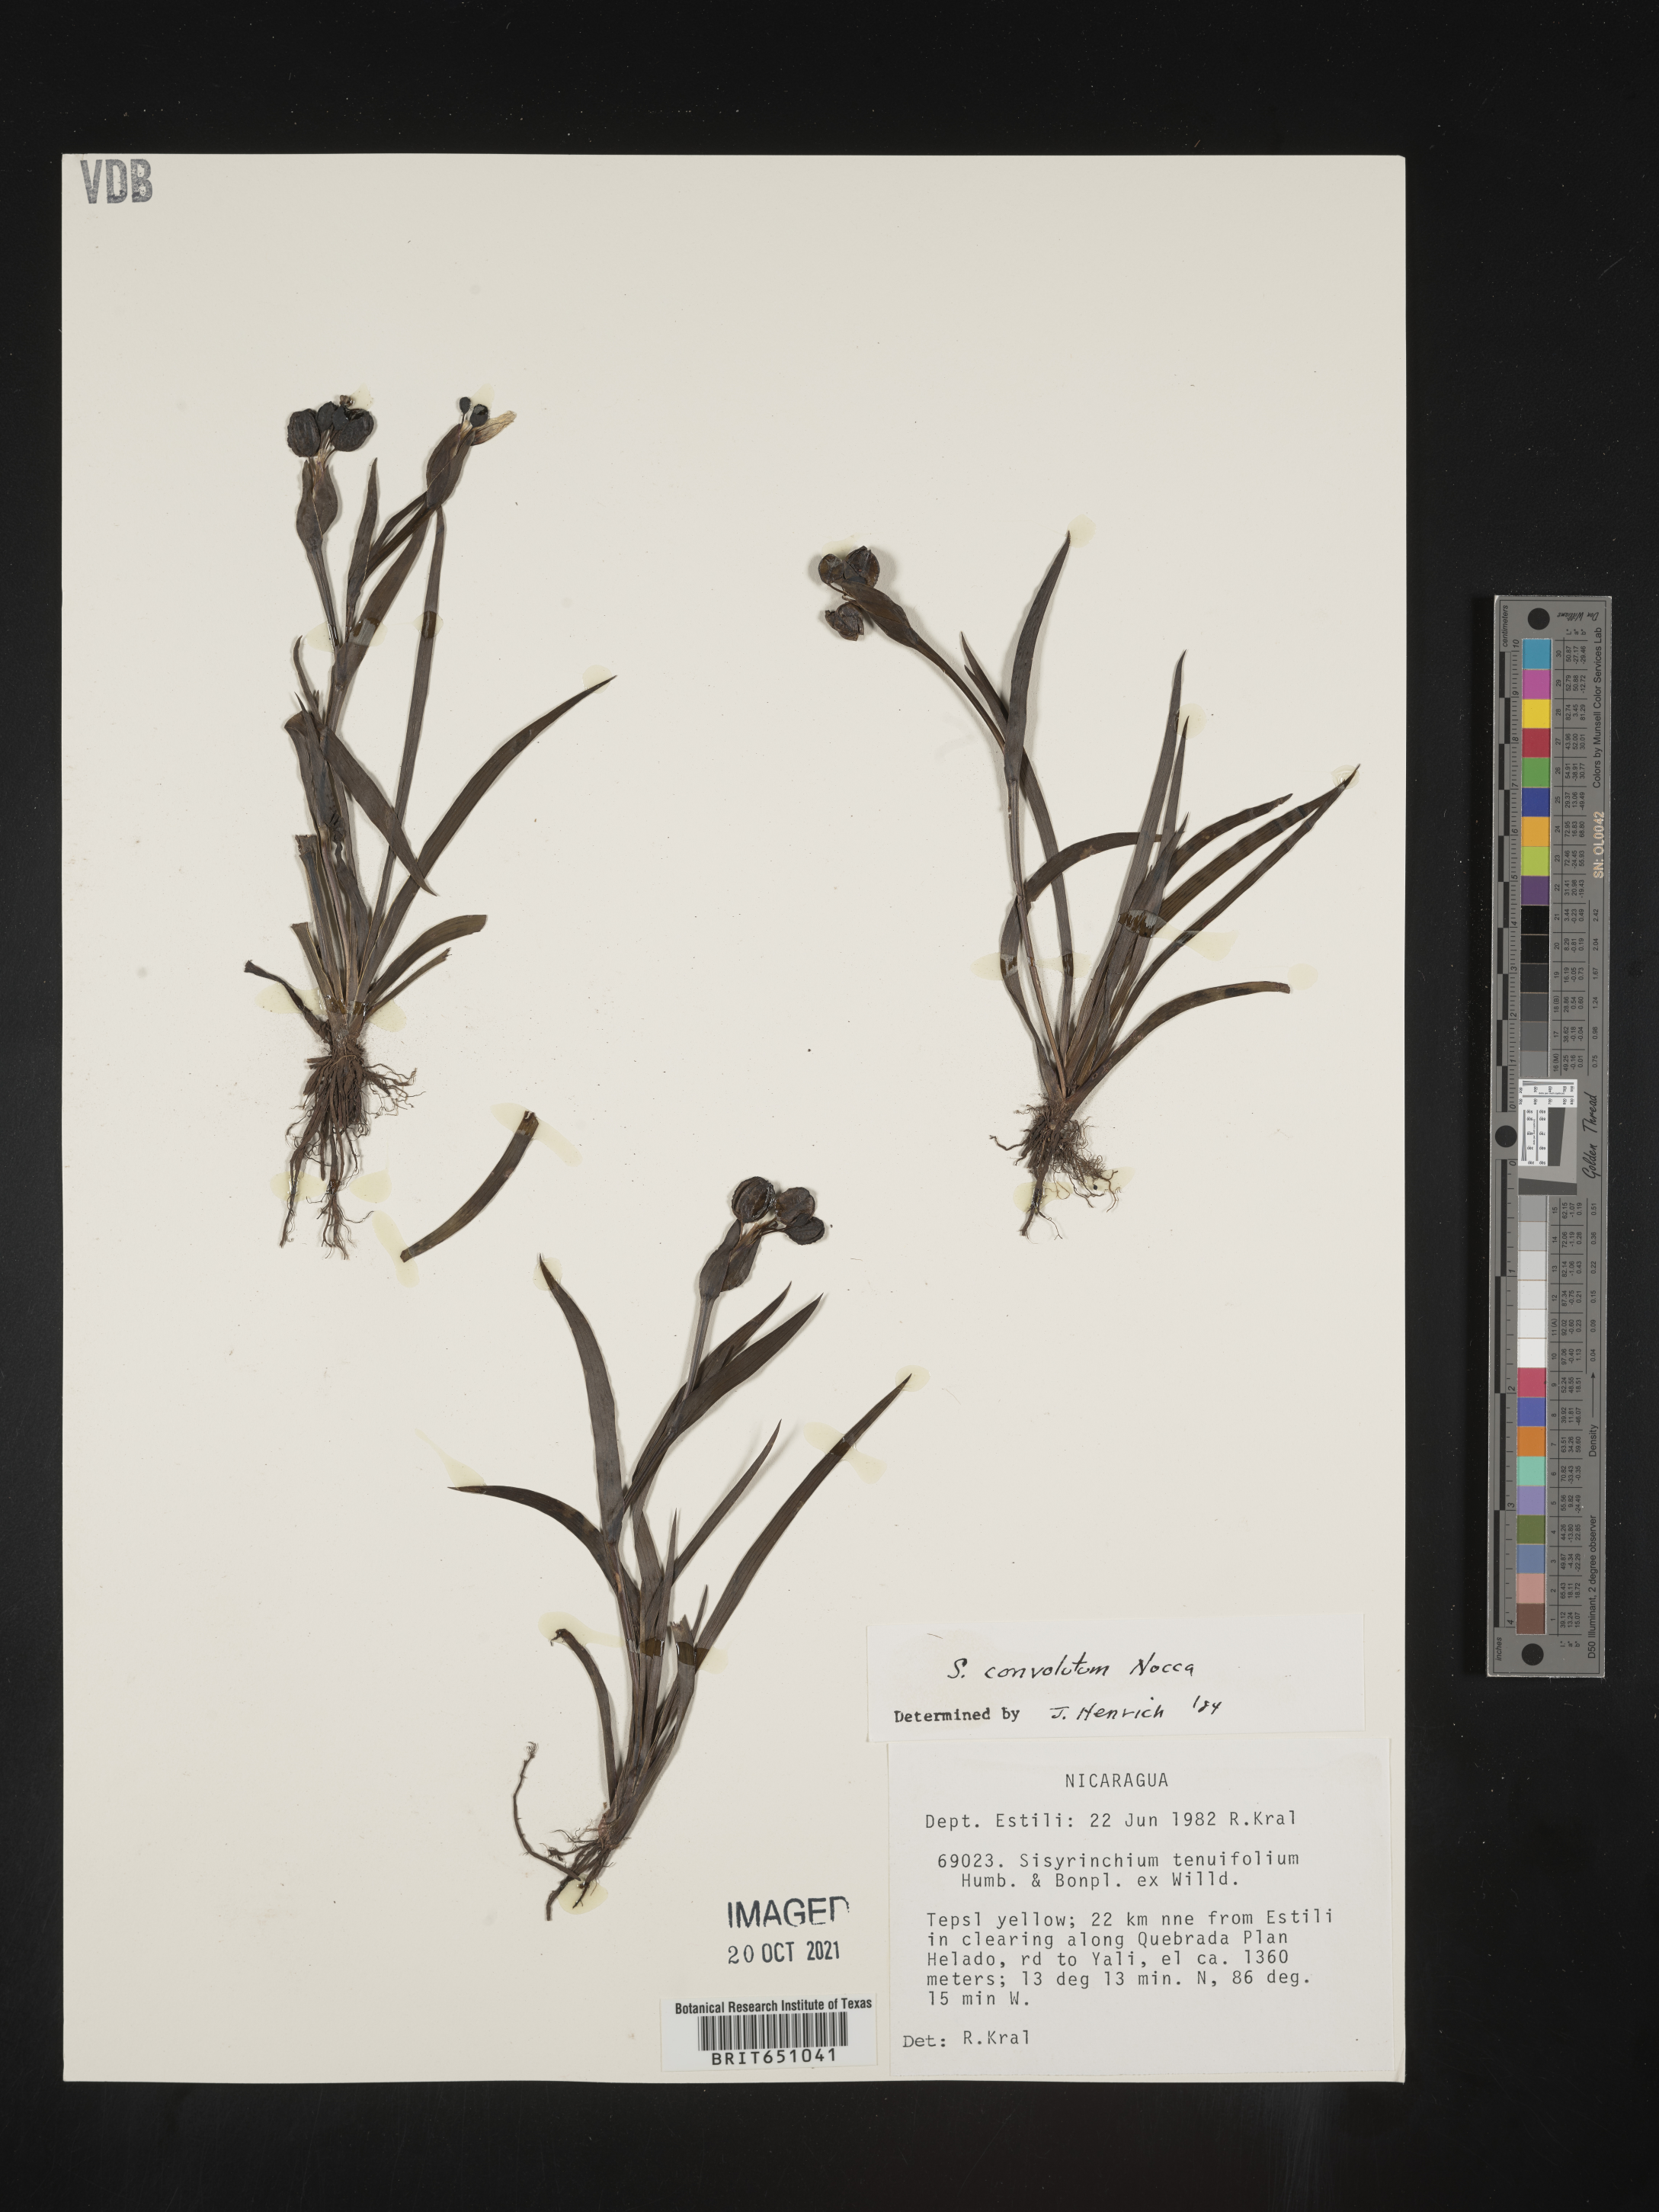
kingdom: Plantae
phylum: Tracheophyta
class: Liliopsida
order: Asparagales
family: Iridaceae
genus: Sisyrinchium
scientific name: Sisyrinchium
